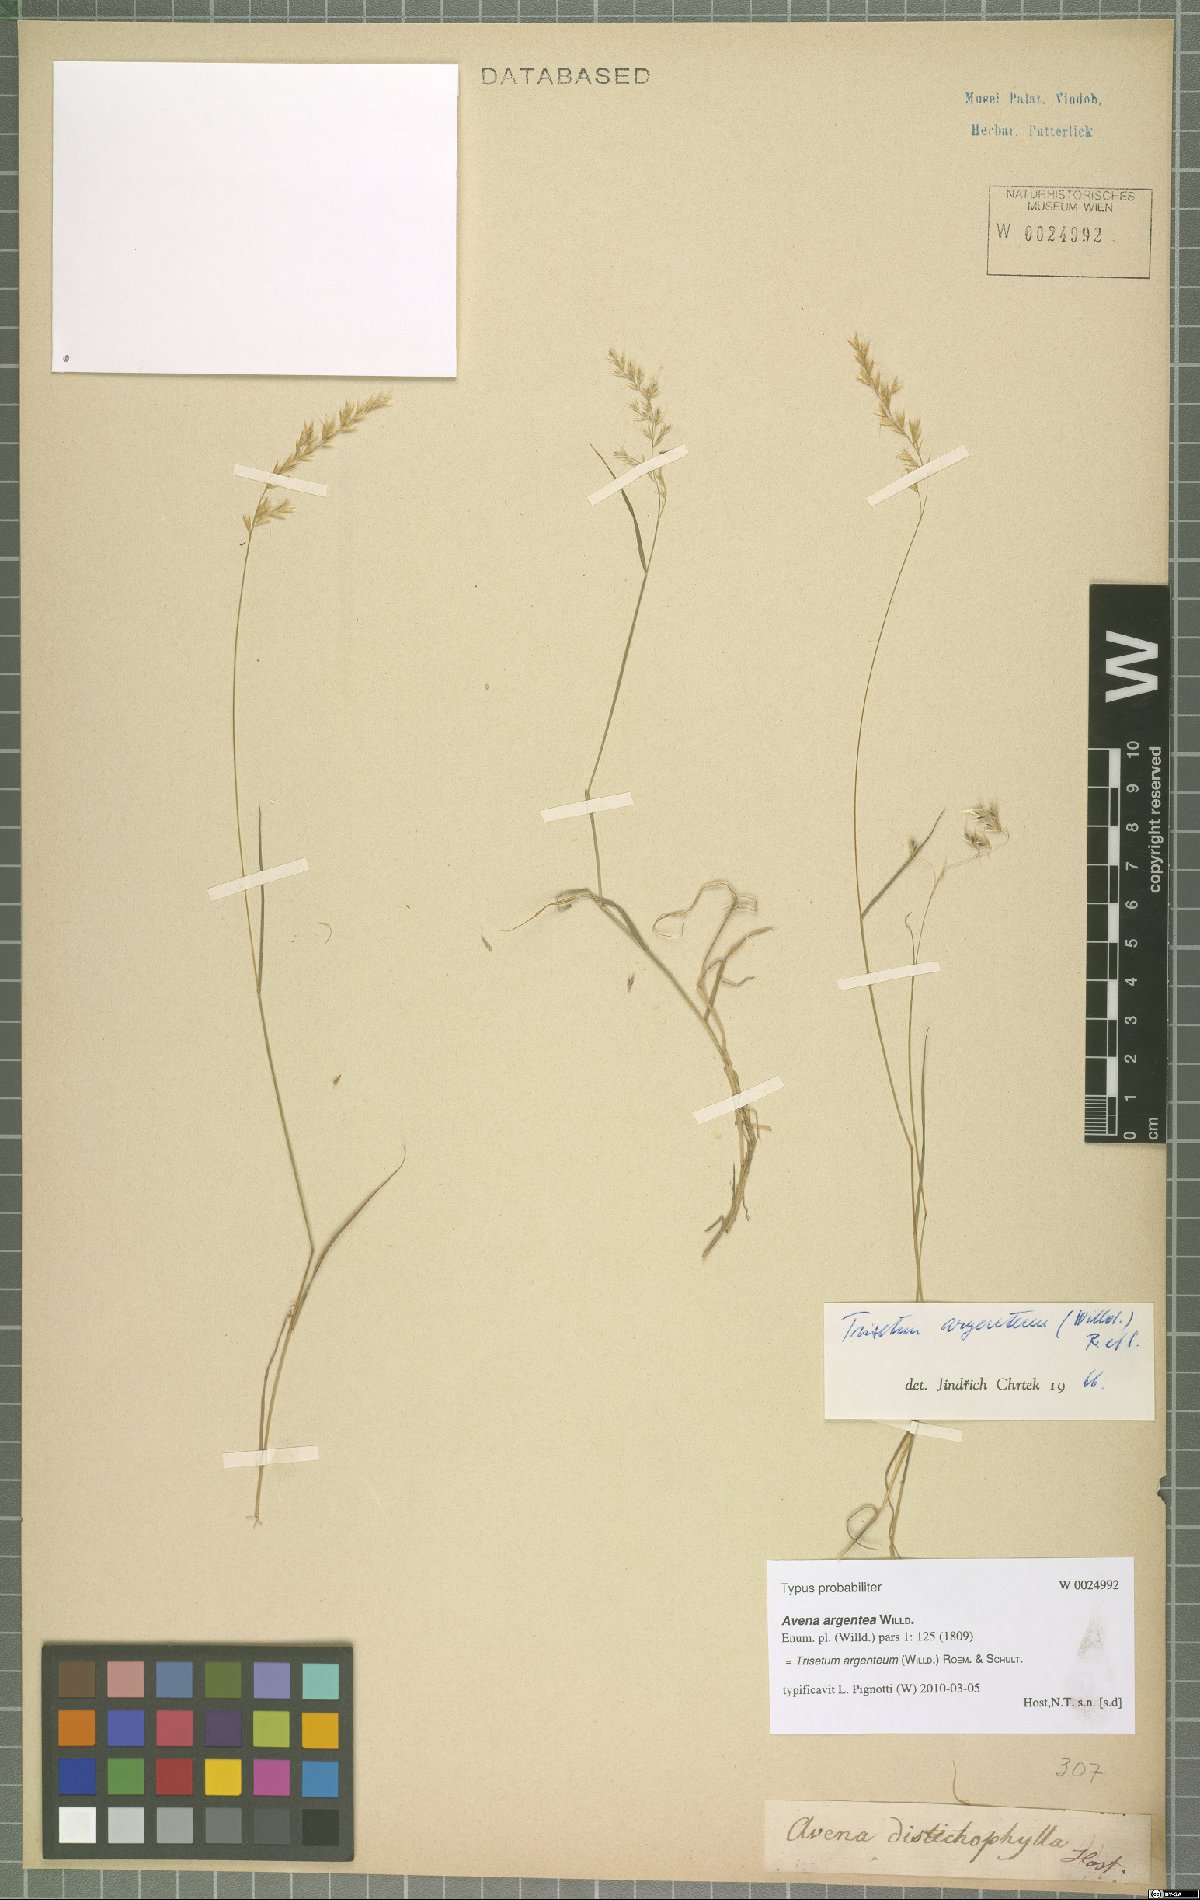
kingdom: Plantae
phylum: Tracheophyta
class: Liliopsida
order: Poales
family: Poaceae
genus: Trisetum
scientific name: Trisetum argenteum
